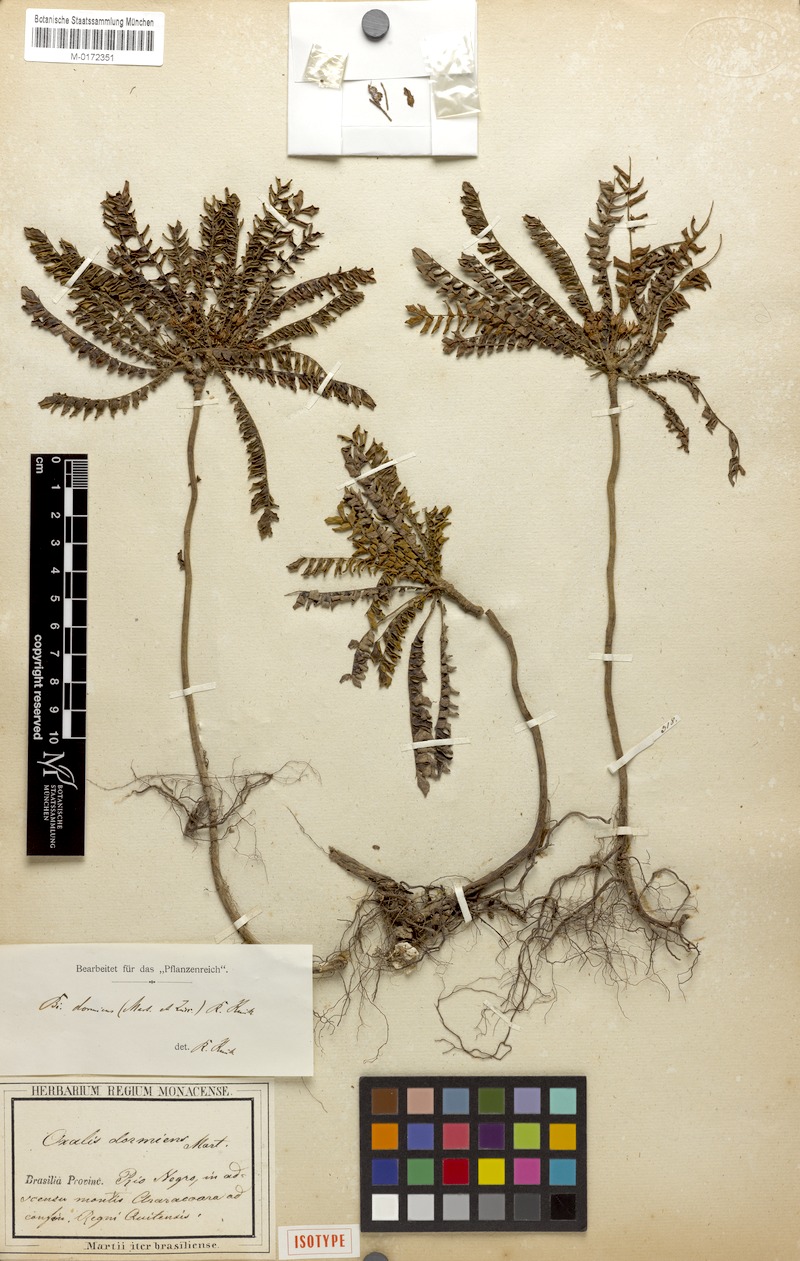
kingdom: Plantae
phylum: Tracheophyta
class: Magnoliopsida
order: Oxalidales
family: Oxalidaceae
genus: Biophytum
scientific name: Biophytum dormiens
